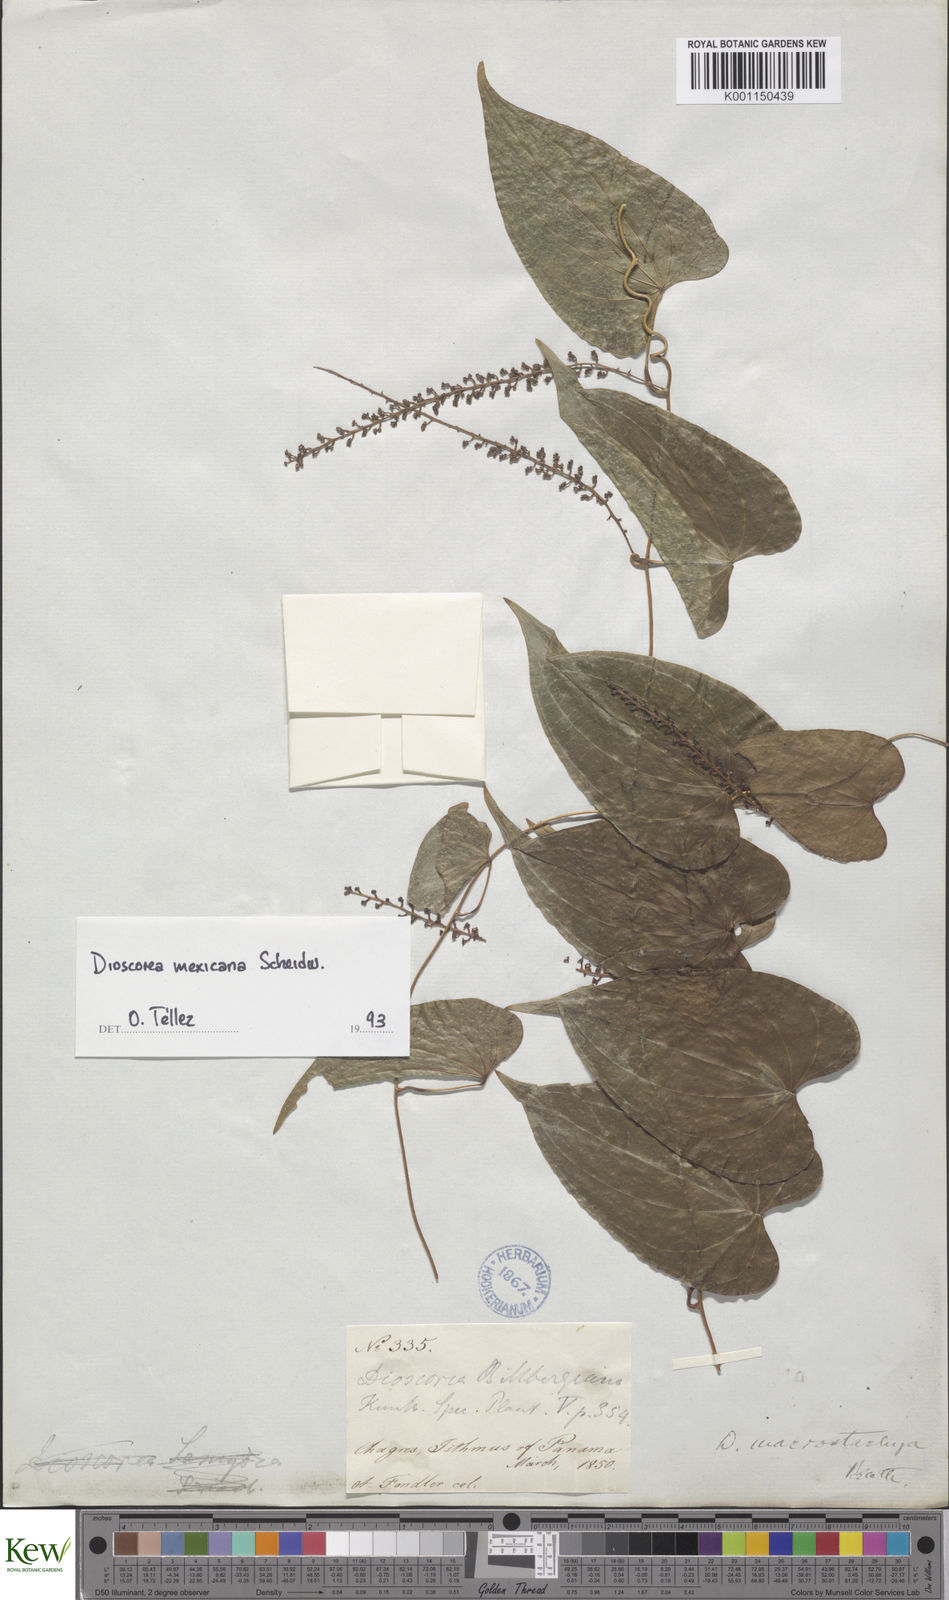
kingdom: Plantae
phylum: Tracheophyta
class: Liliopsida
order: Dioscoreales
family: Dioscoreaceae
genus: Dioscorea
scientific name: Dioscorea mexicana
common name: Mexican yam
